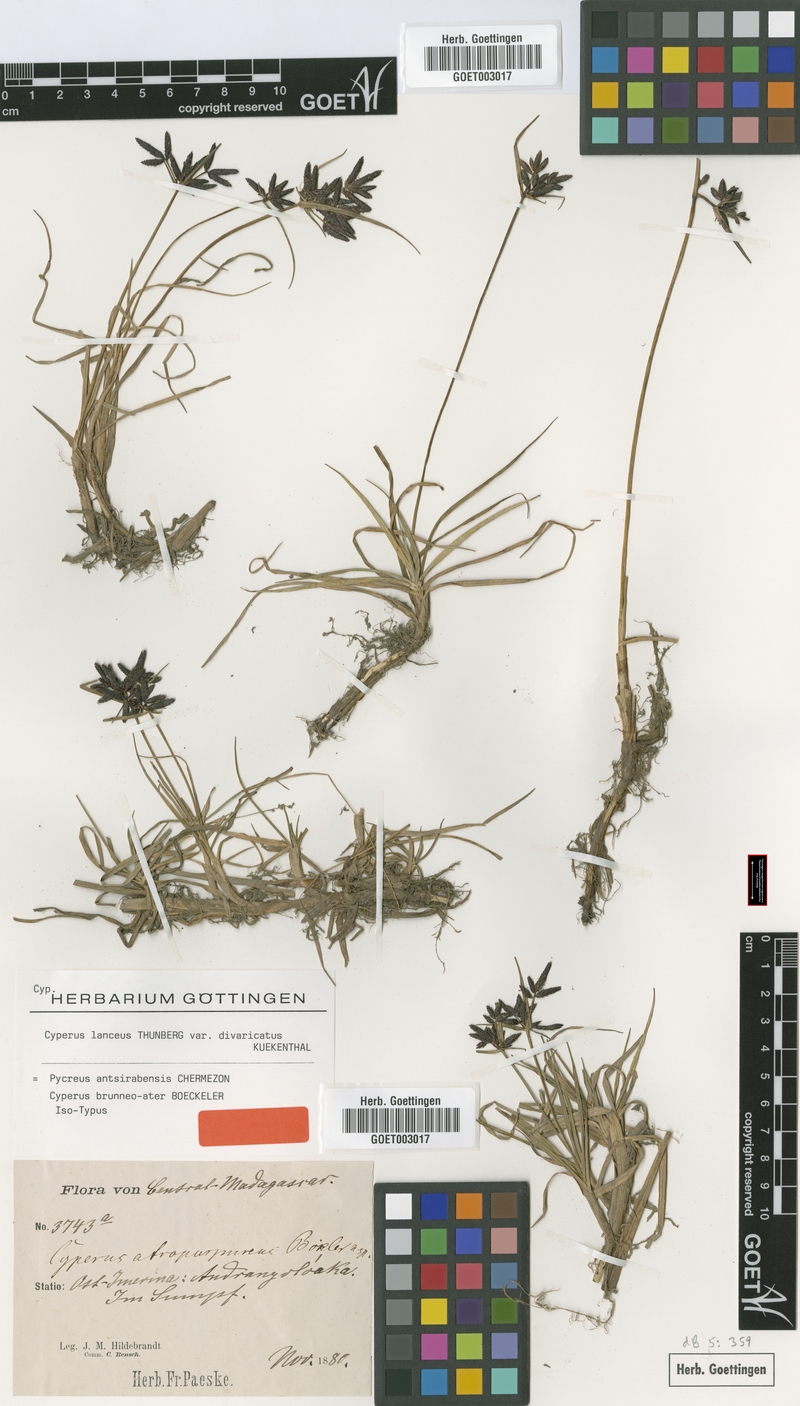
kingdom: Plantae
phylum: Tracheophyta
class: Liliopsida
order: Poales
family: Cyperaceae
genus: Cyperus
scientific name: Cyperus nitidus
